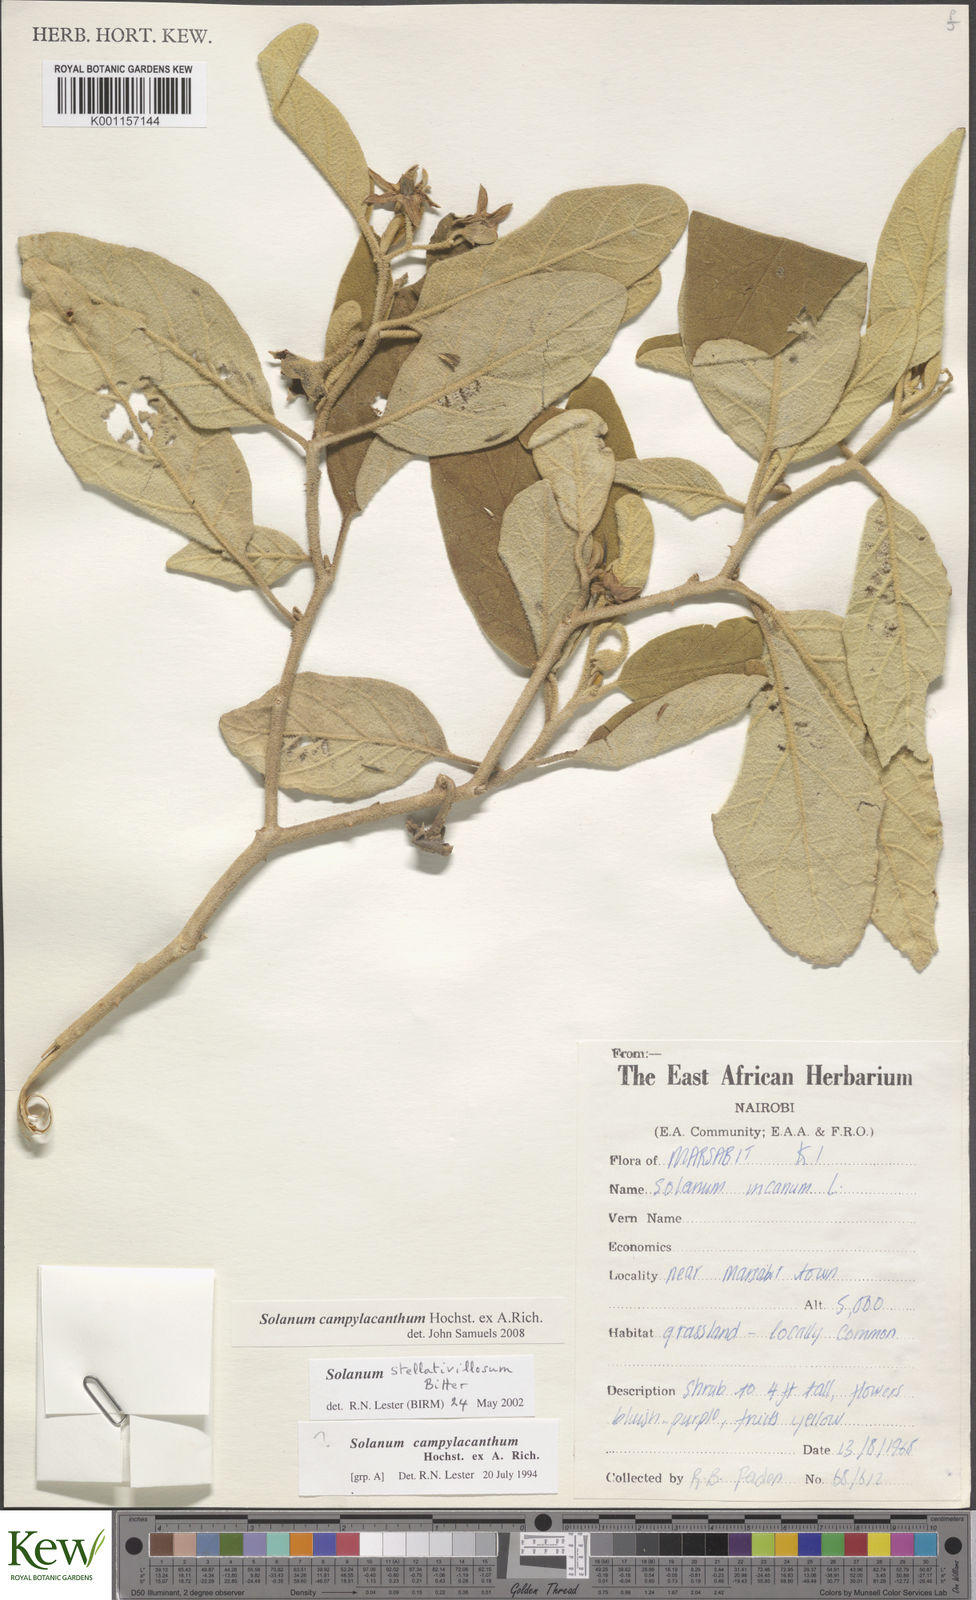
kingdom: Plantae
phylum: Tracheophyta
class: Magnoliopsida
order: Solanales
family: Solanaceae
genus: Solanum
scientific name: Solanum campylacanthum
